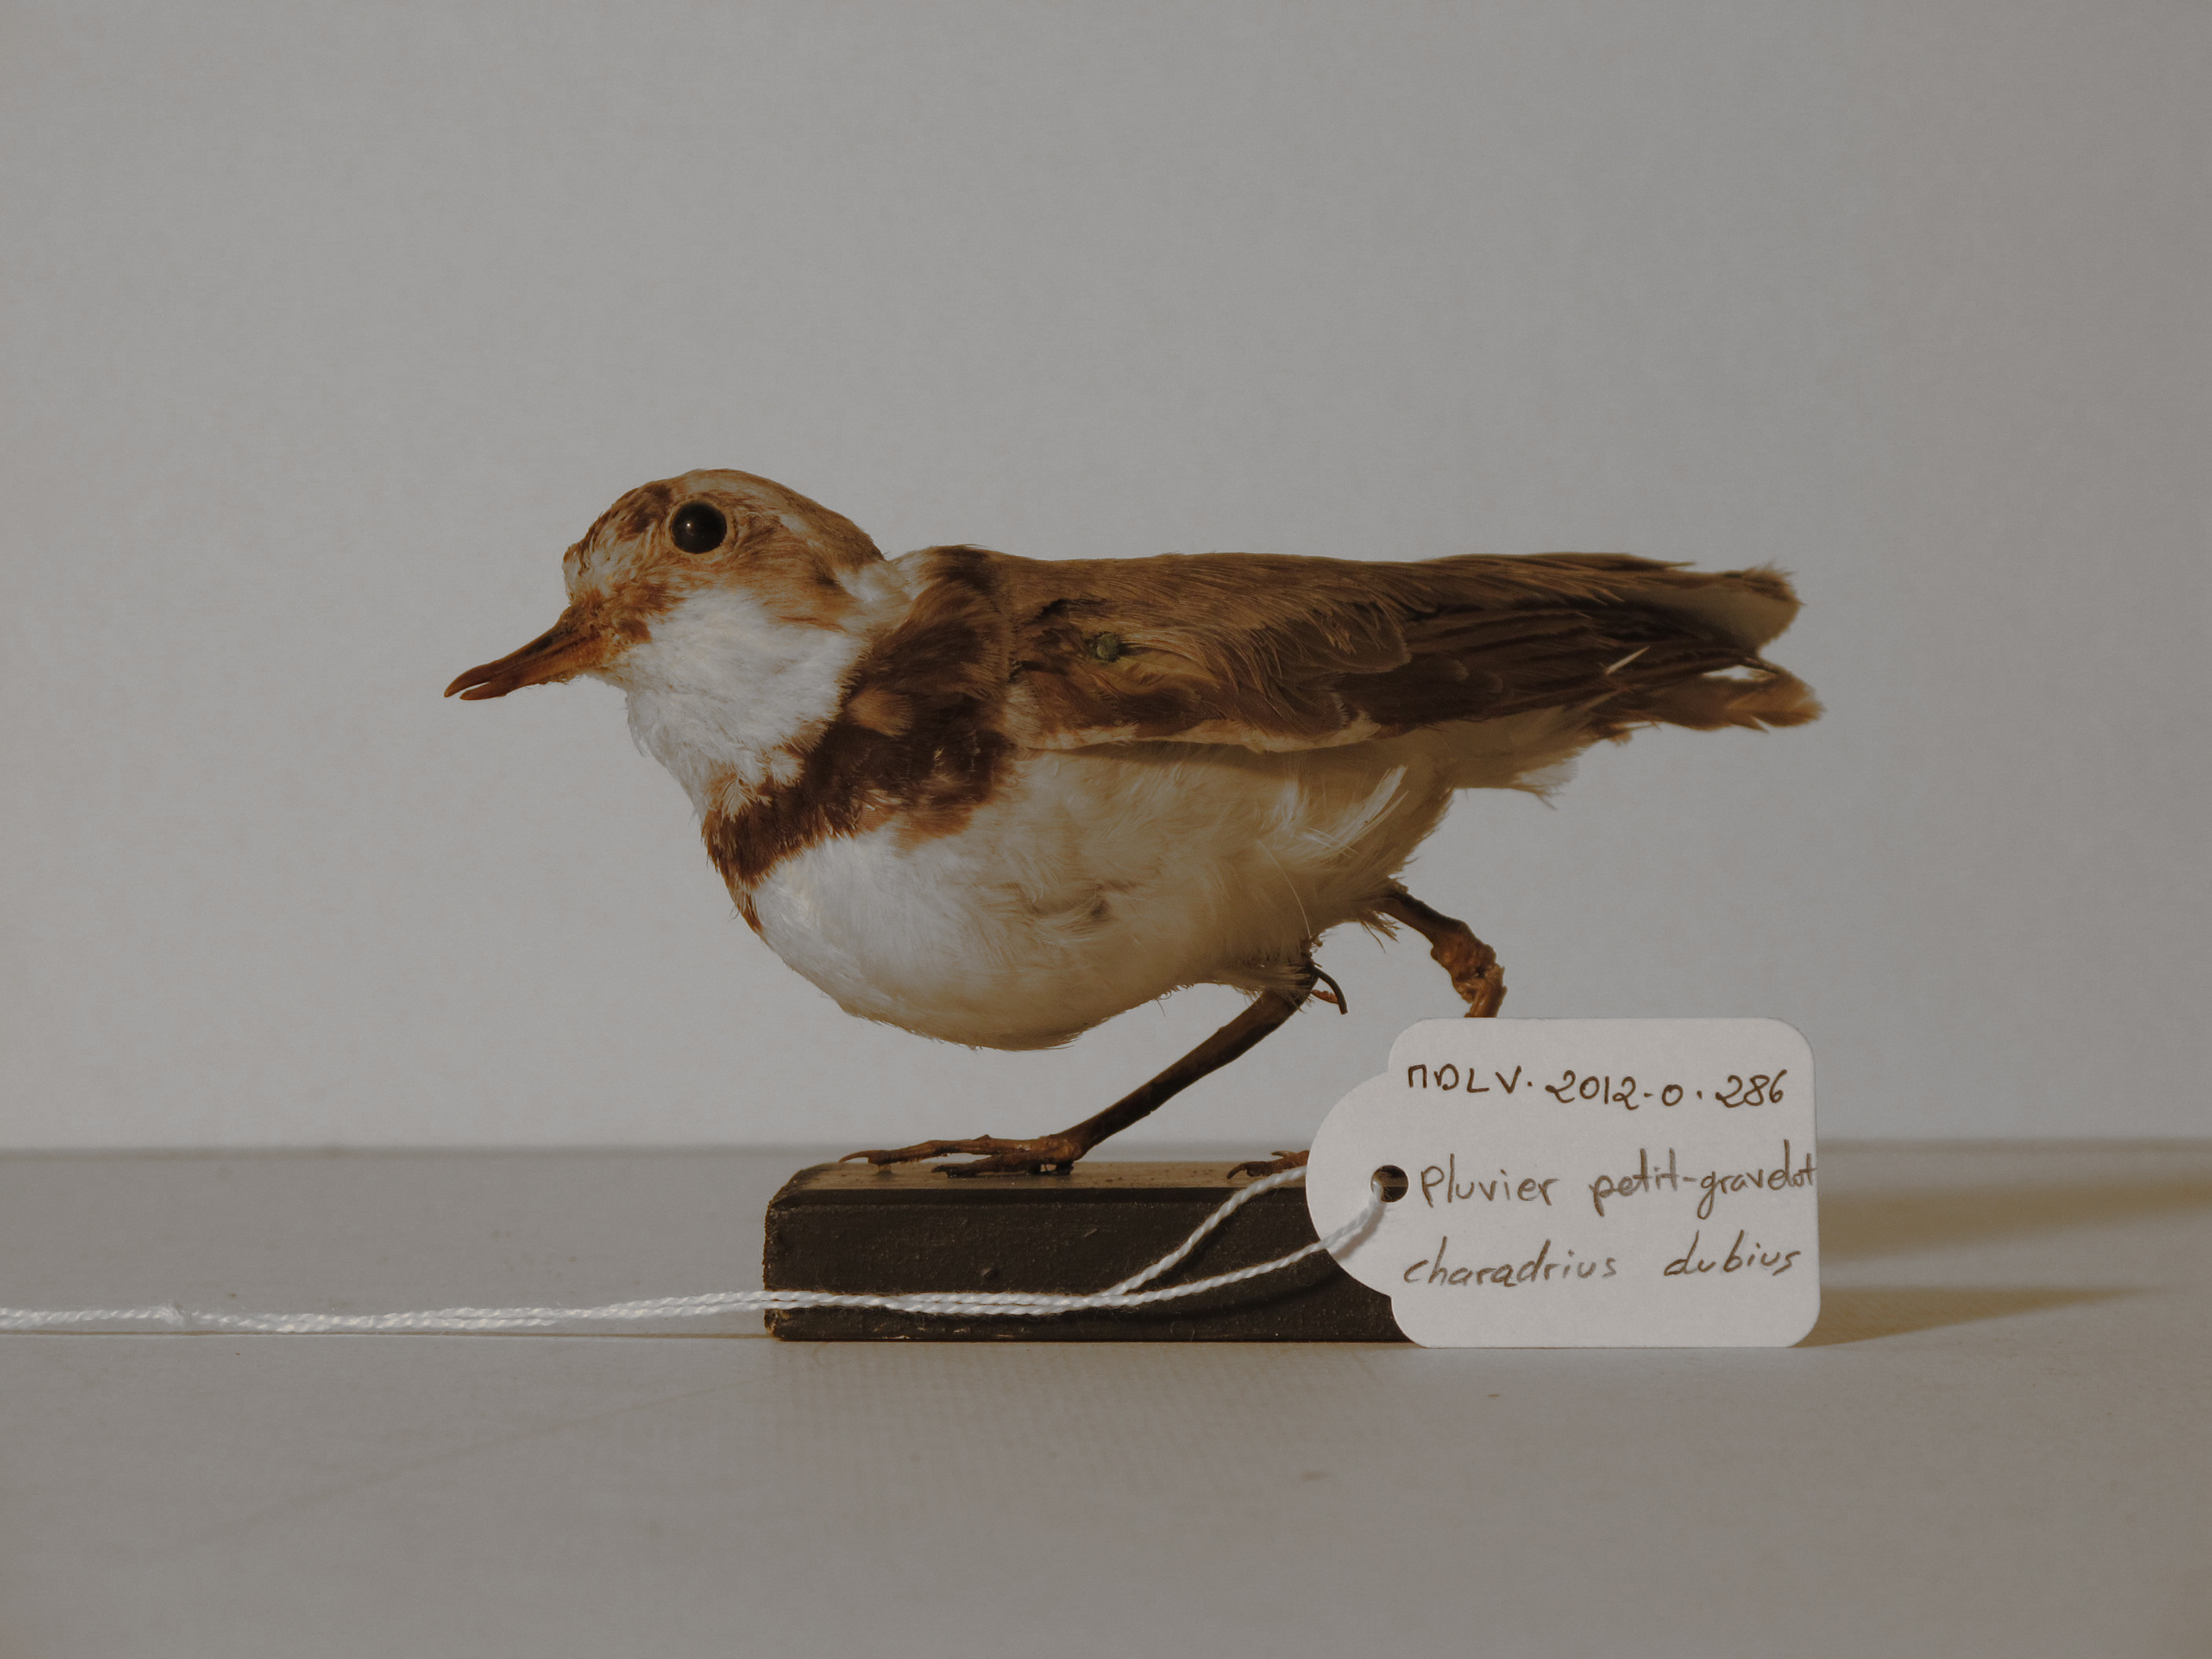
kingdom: Animalia
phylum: Chordata
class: Aves
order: Charadriiformes
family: Charadriidae
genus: Charadrius
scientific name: Charadrius dubius
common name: Little Ringed Plover
